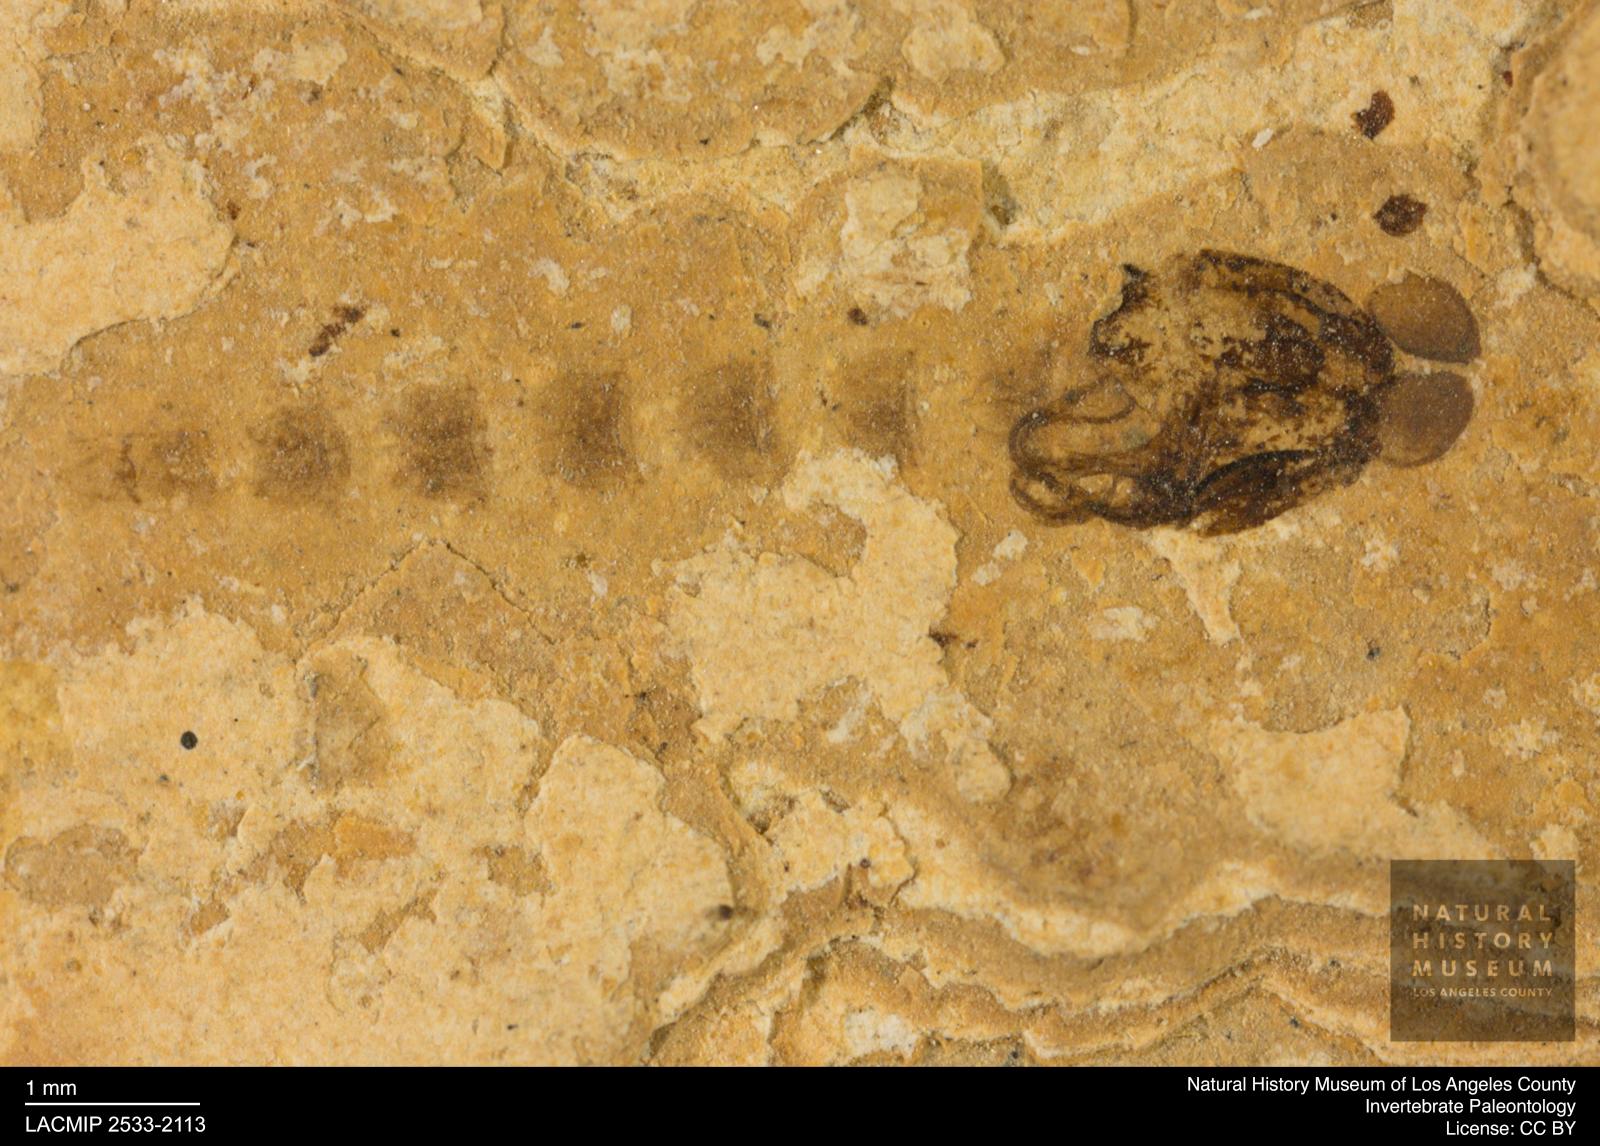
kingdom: Animalia
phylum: Arthropoda
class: Insecta
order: Diptera
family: Chironomidae
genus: Pelopiina
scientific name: Pelopiina
